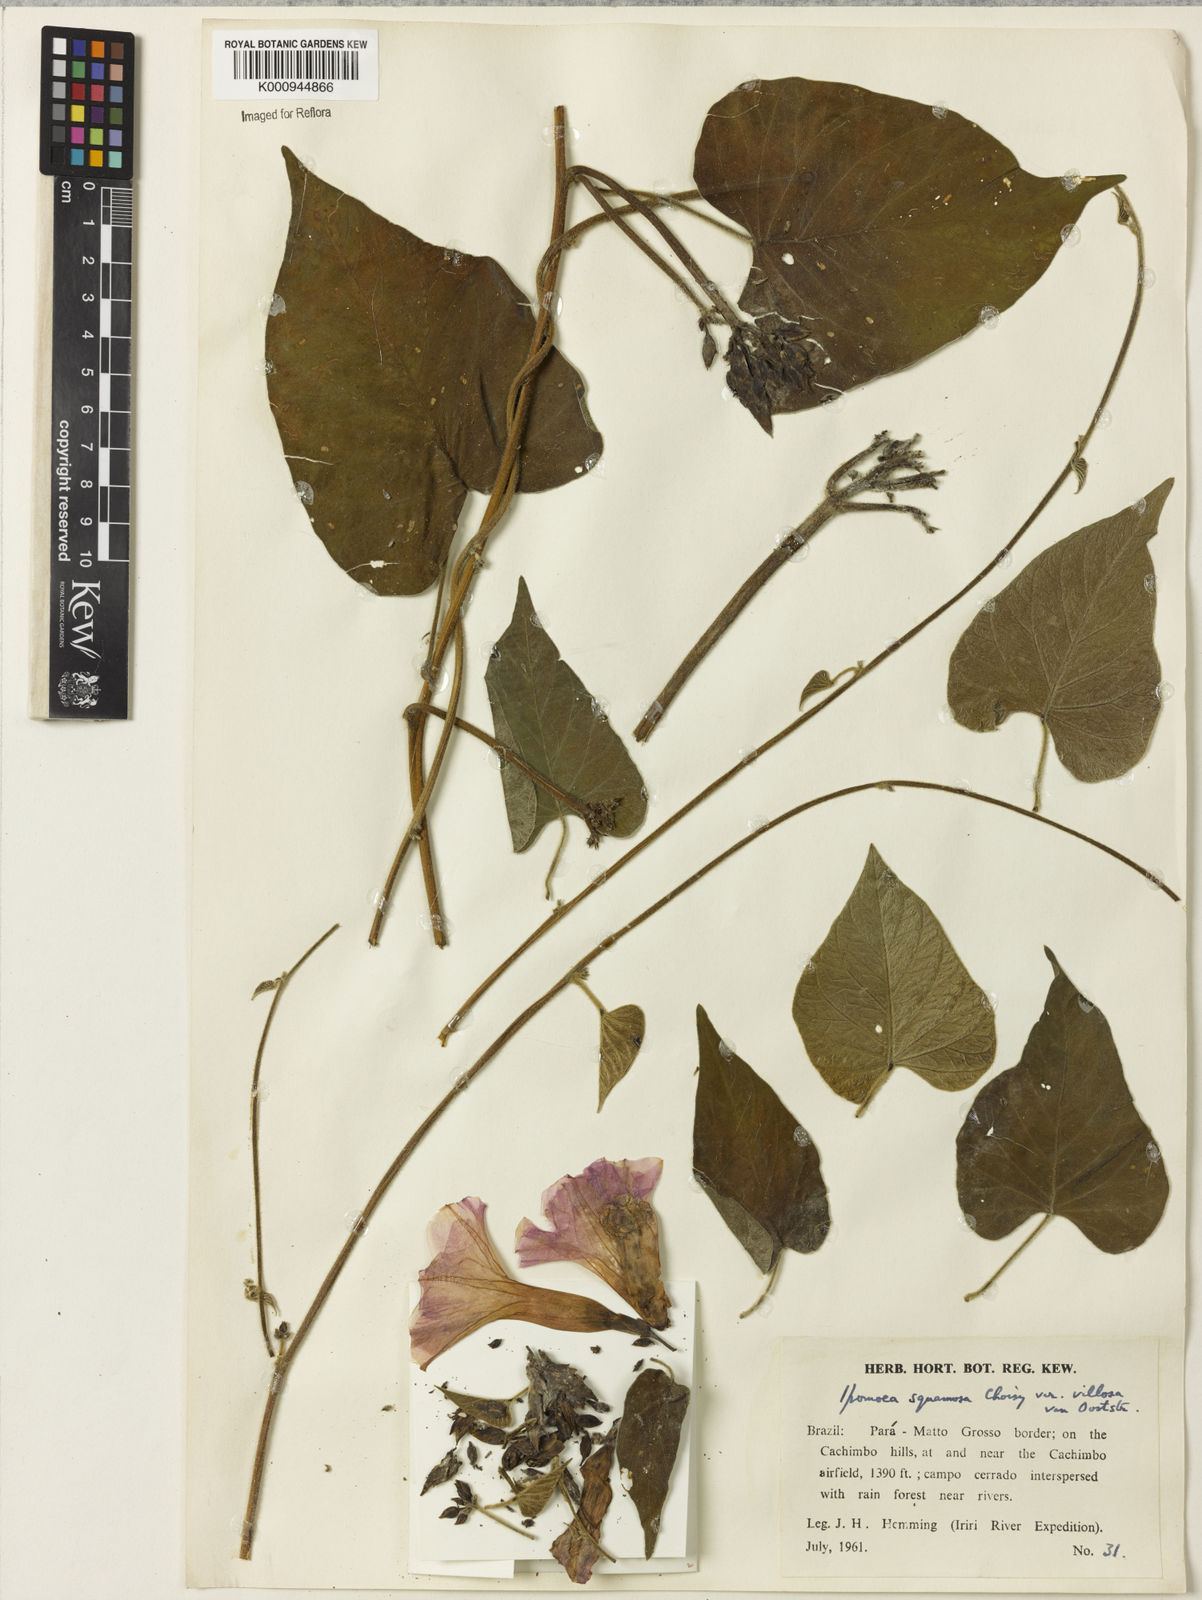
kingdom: Plantae
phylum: Tracheophyta
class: Magnoliopsida
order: Solanales
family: Convolvulaceae
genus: Ipomoea
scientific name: Ipomoea squamosa
